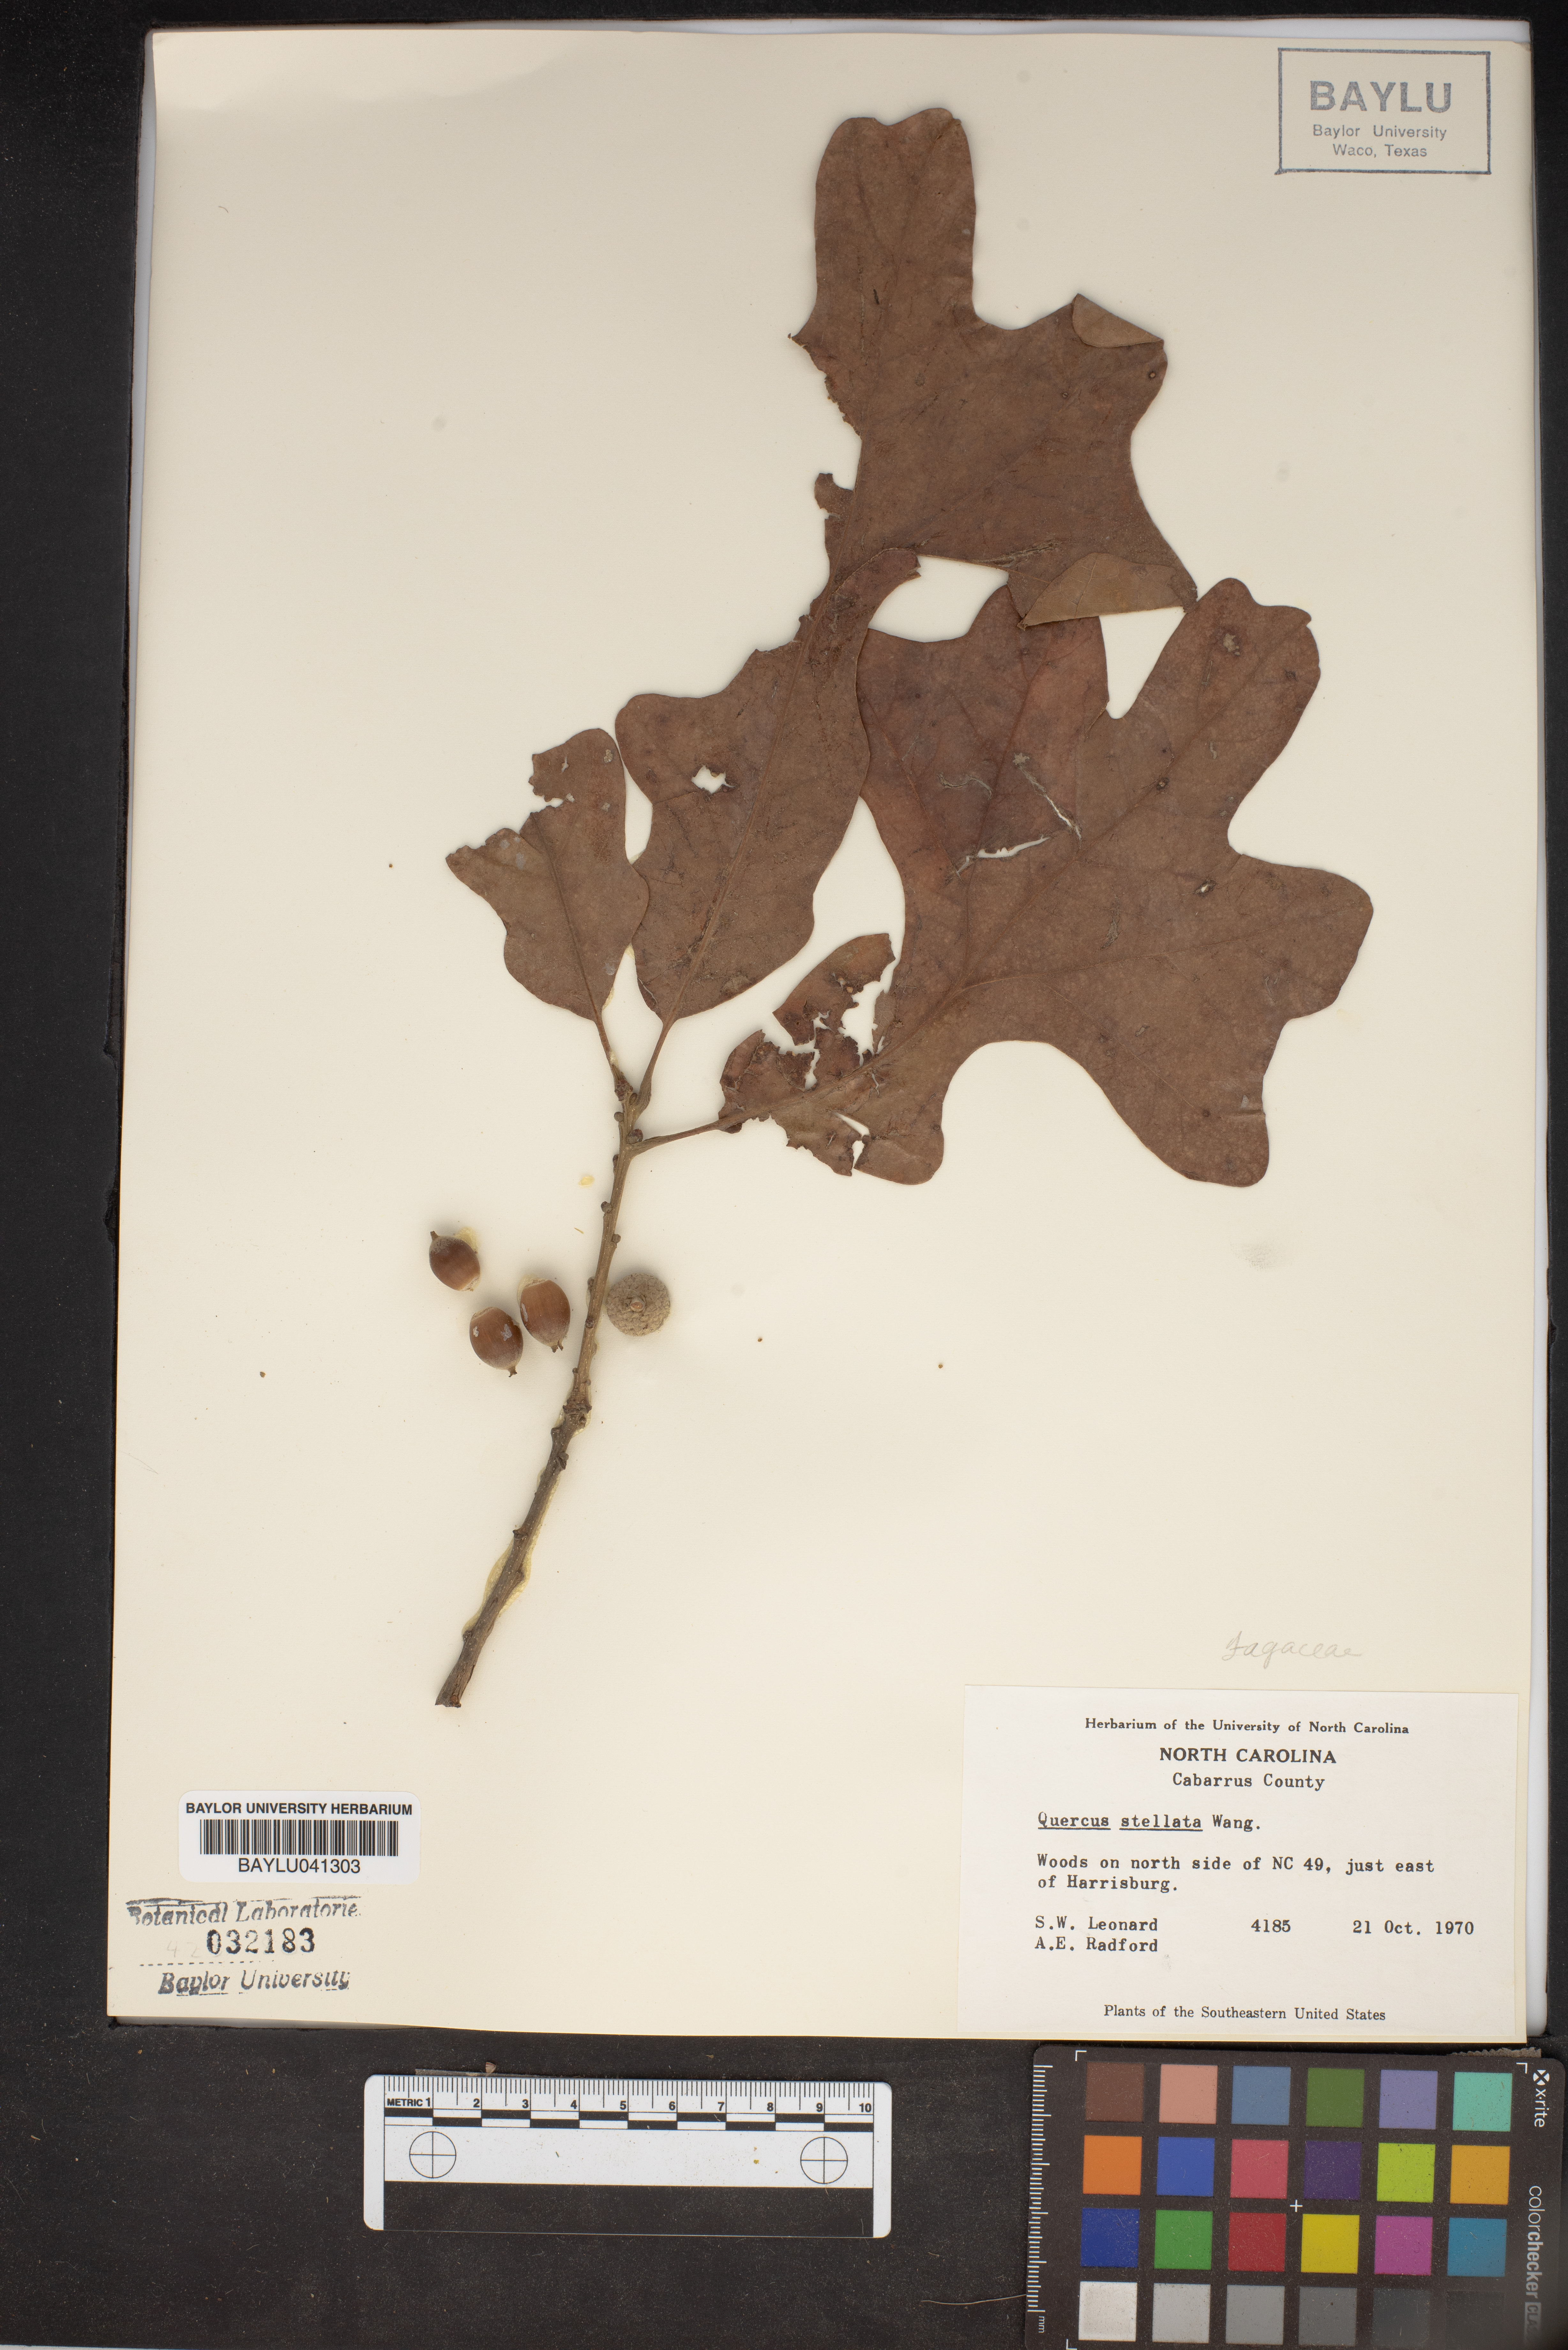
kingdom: Plantae
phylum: Tracheophyta
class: Magnoliopsida
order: Fagales
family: Fagaceae
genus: Quercus
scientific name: Quercus stellata
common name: Post oak
